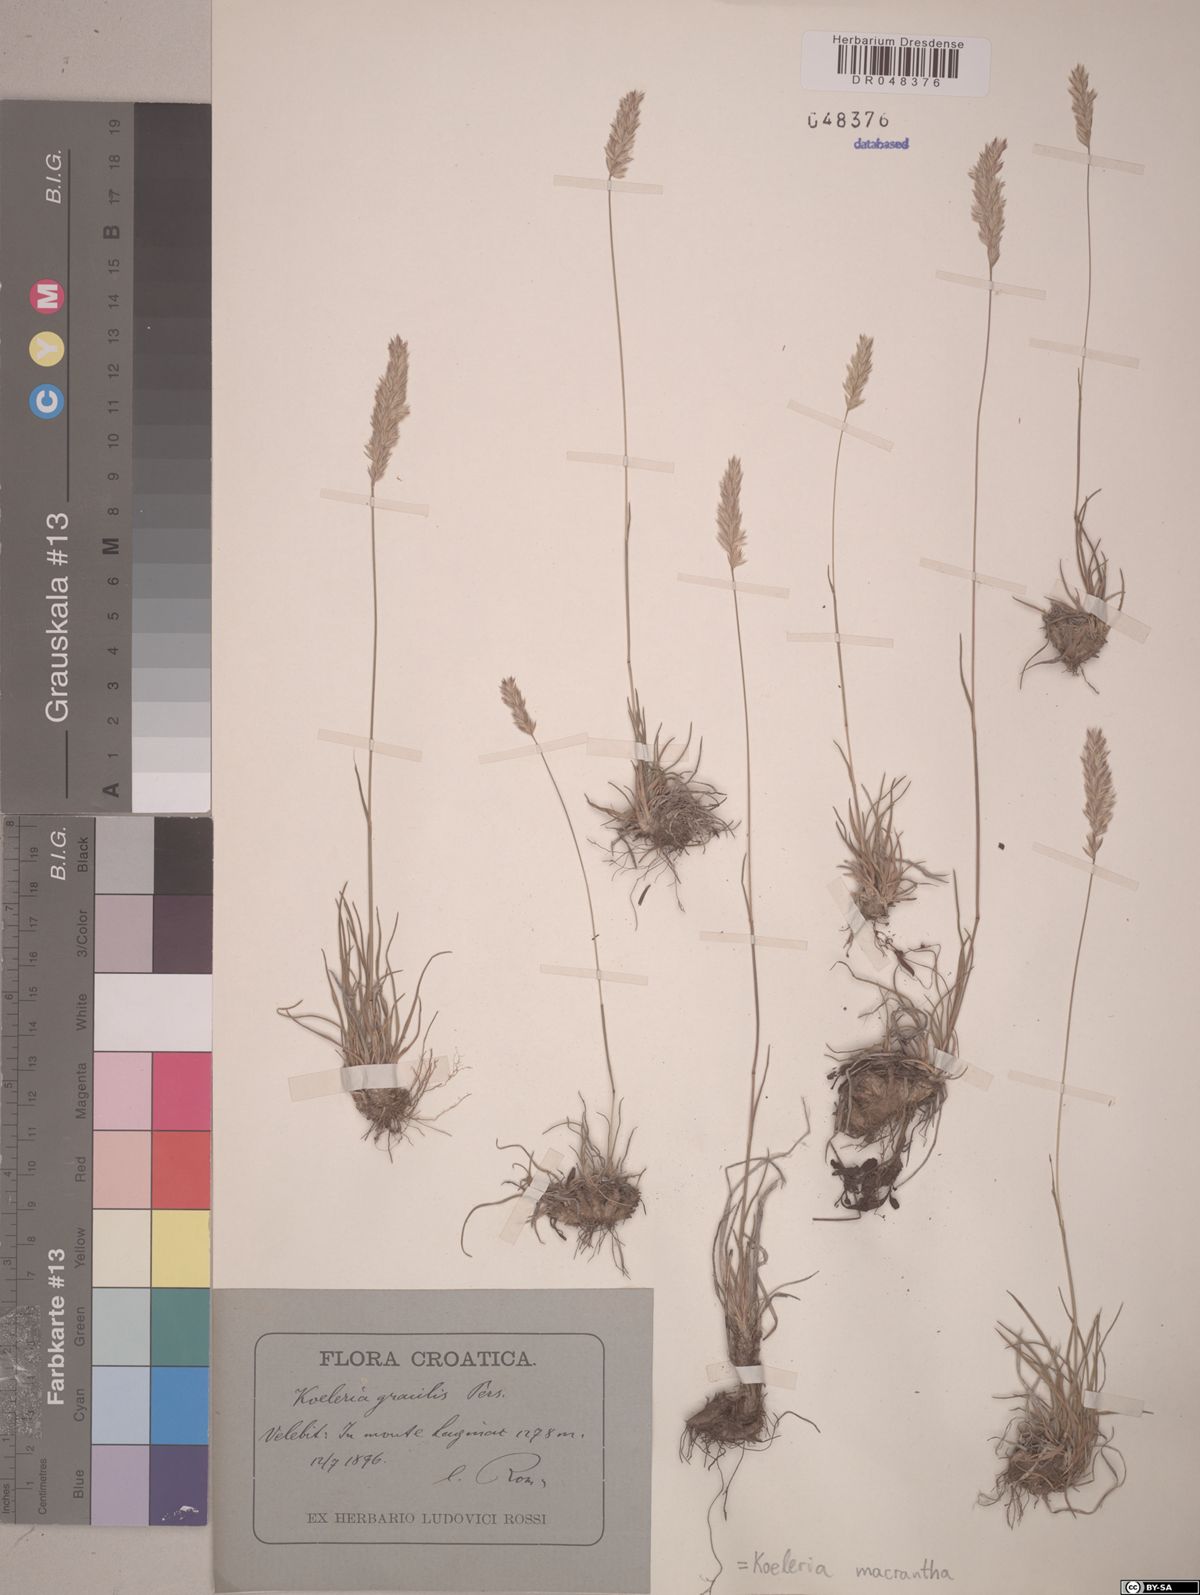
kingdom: Plantae
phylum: Tracheophyta
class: Liliopsida
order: Poales
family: Poaceae
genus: Koeleria
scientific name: Koeleria macrantha
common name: Crested hair-grass
